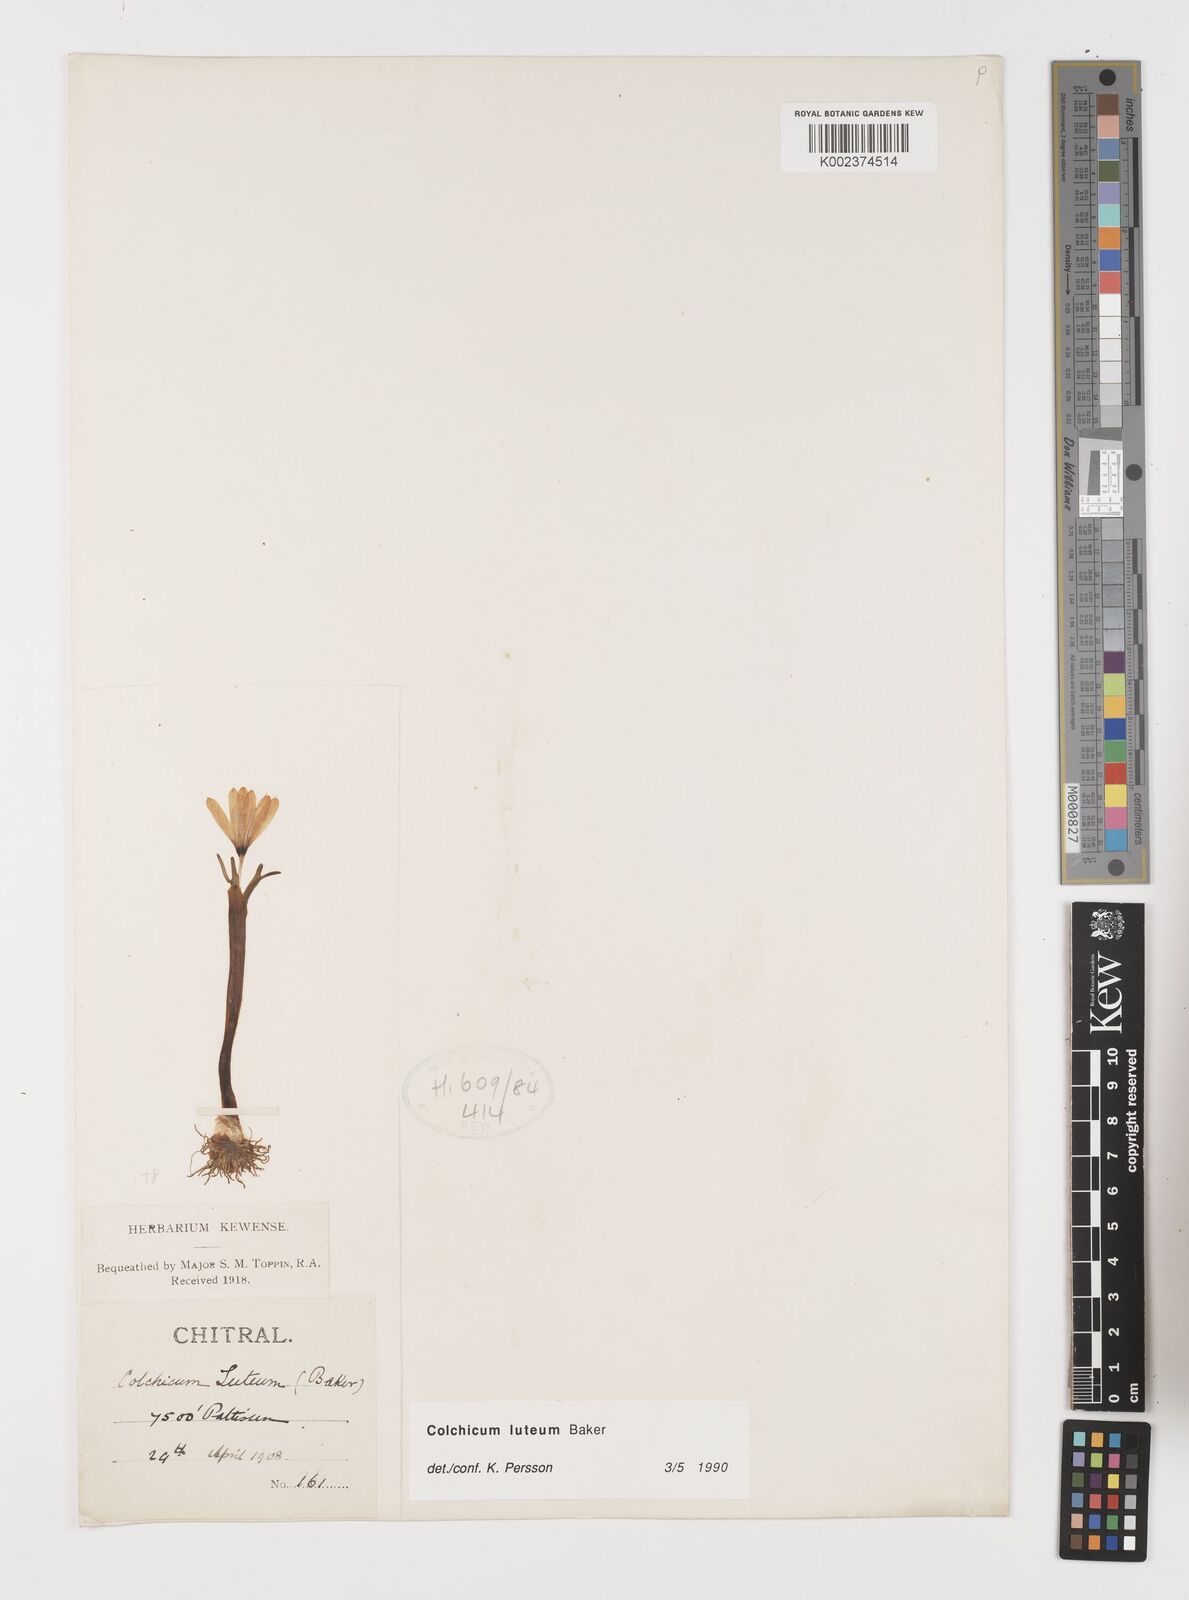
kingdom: Plantae
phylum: Tracheophyta
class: Liliopsida
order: Liliales
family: Colchicaceae
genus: Colchicum
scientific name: Colchicum luteum
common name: Indian colchicum
